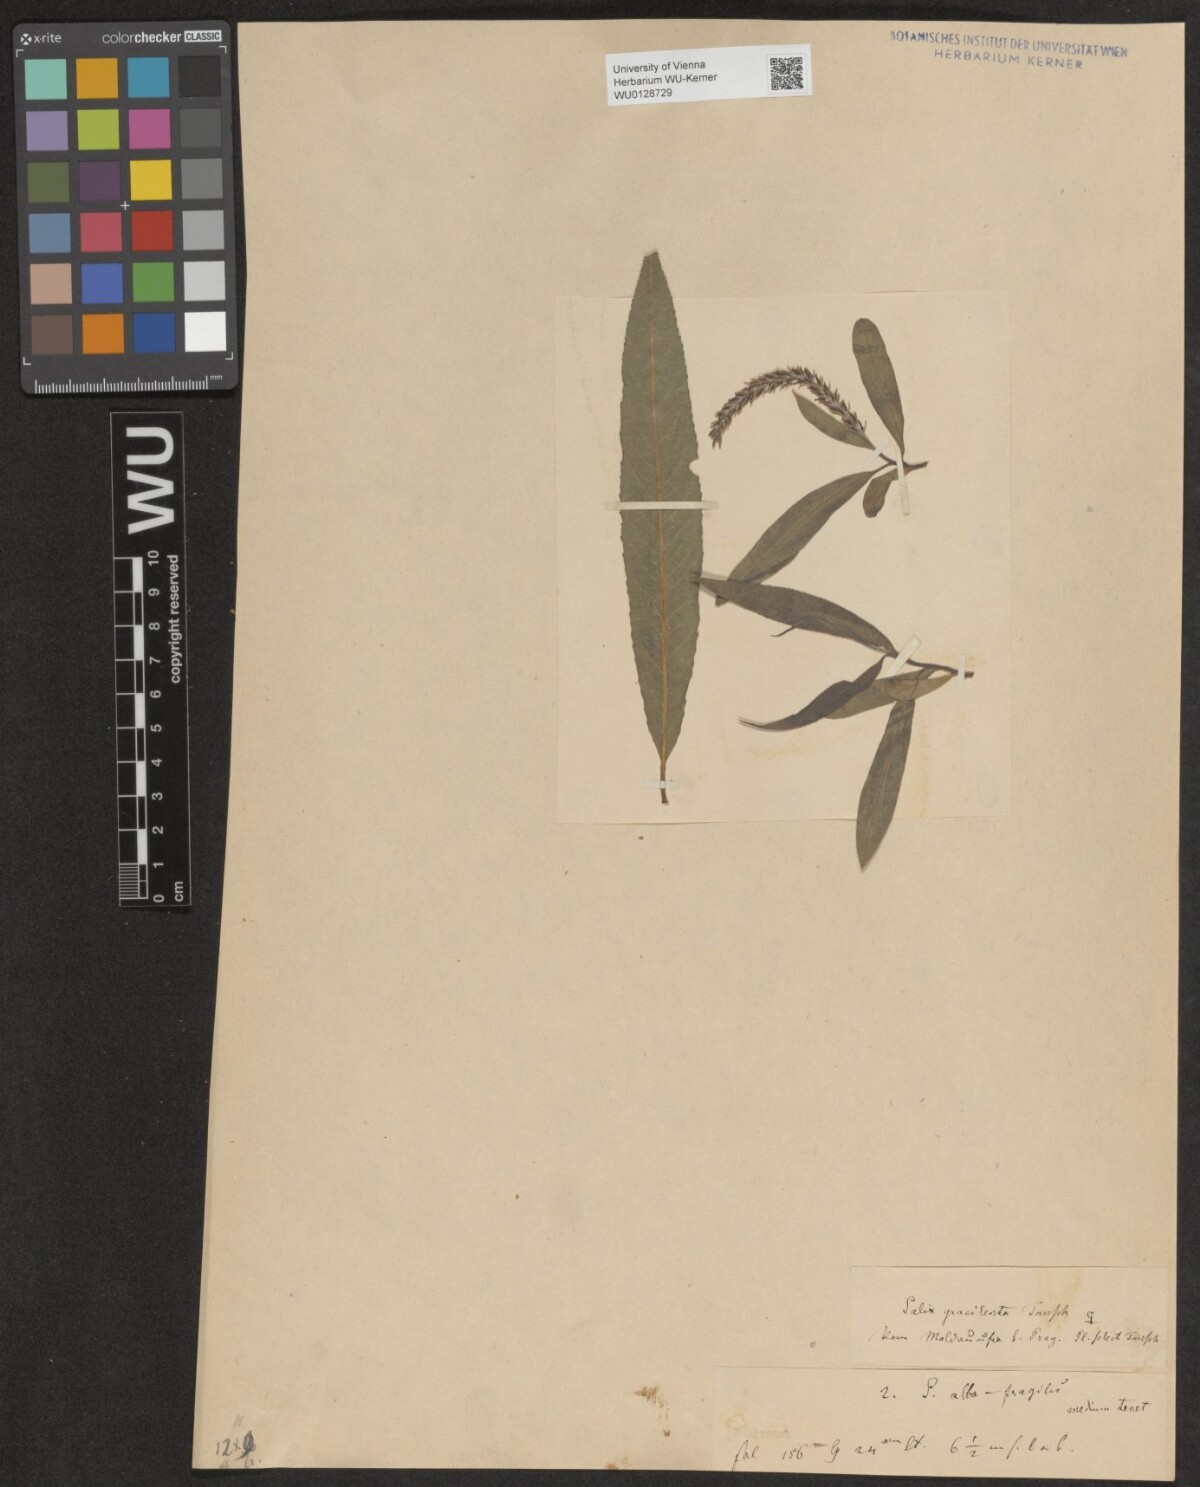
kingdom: Plantae
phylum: Tracheophyta
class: Magnoliopsida
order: Malpighiales
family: Salicaceae
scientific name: Salicaceae
